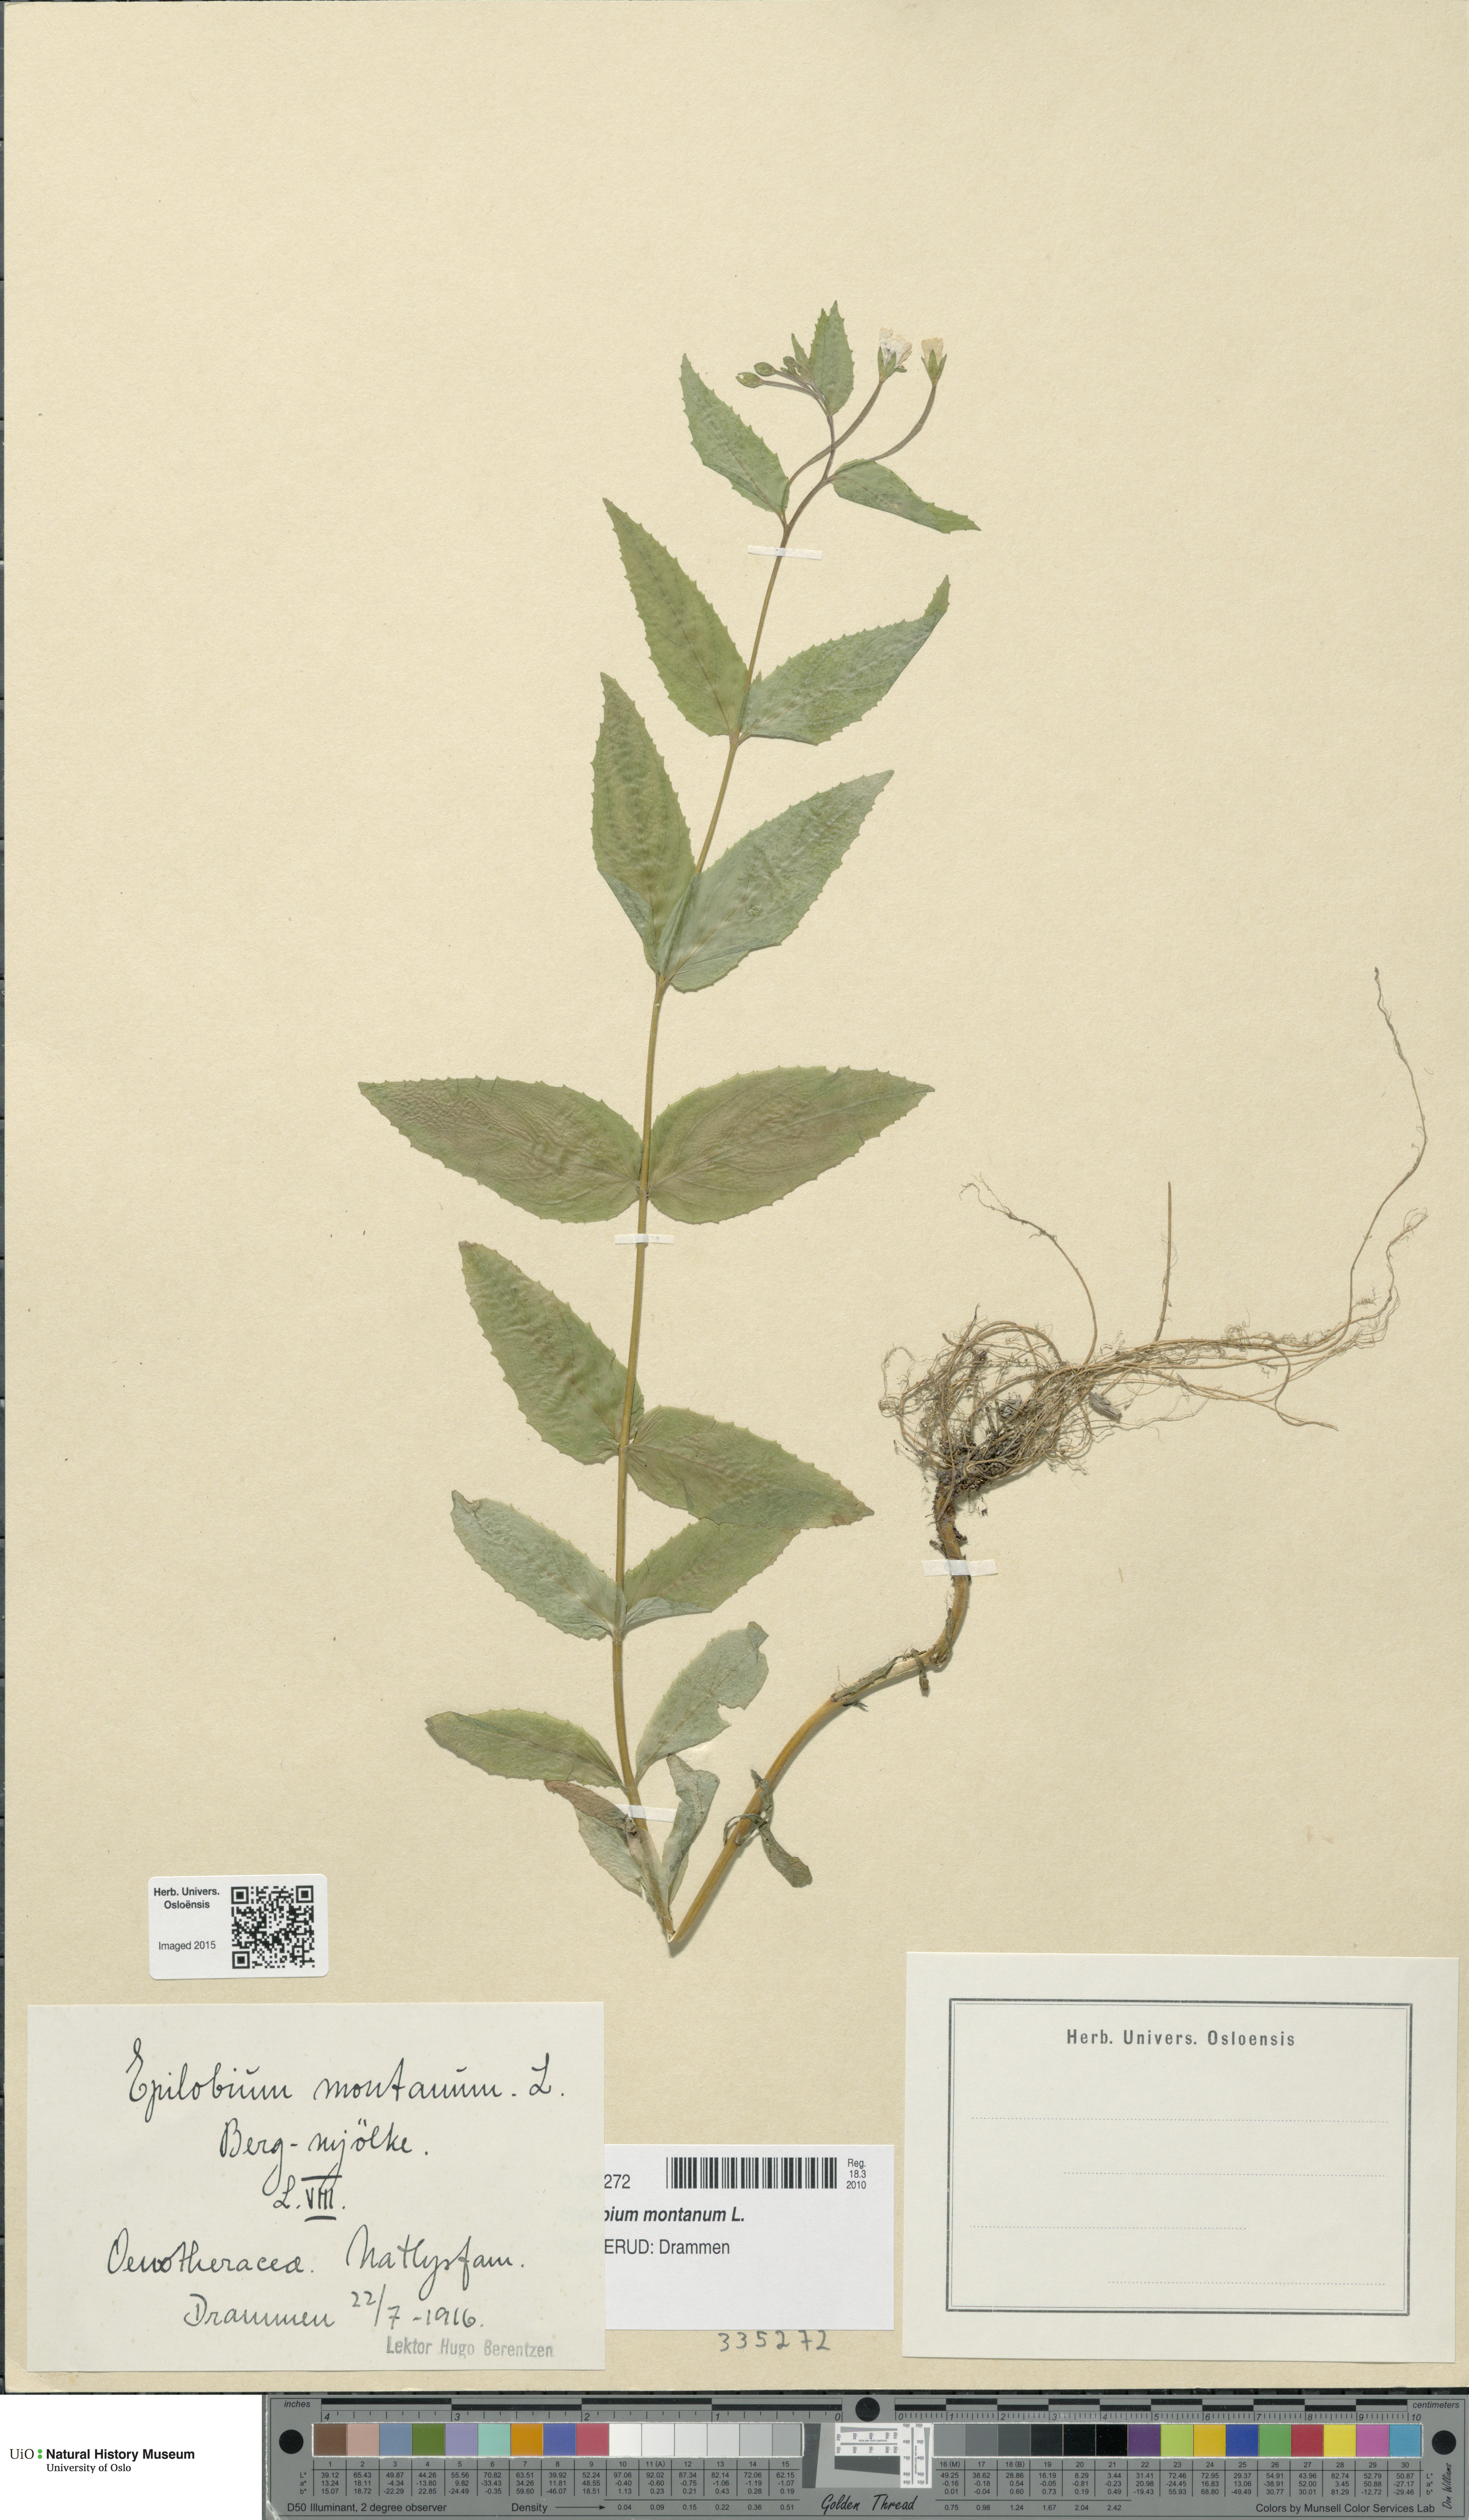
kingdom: Plantae
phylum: Tracheophyta
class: Magnoliopsida
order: Myrtales
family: Onagraceae
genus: Epilobium
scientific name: Epilobium montanum
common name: Broad-leaved willowherb
